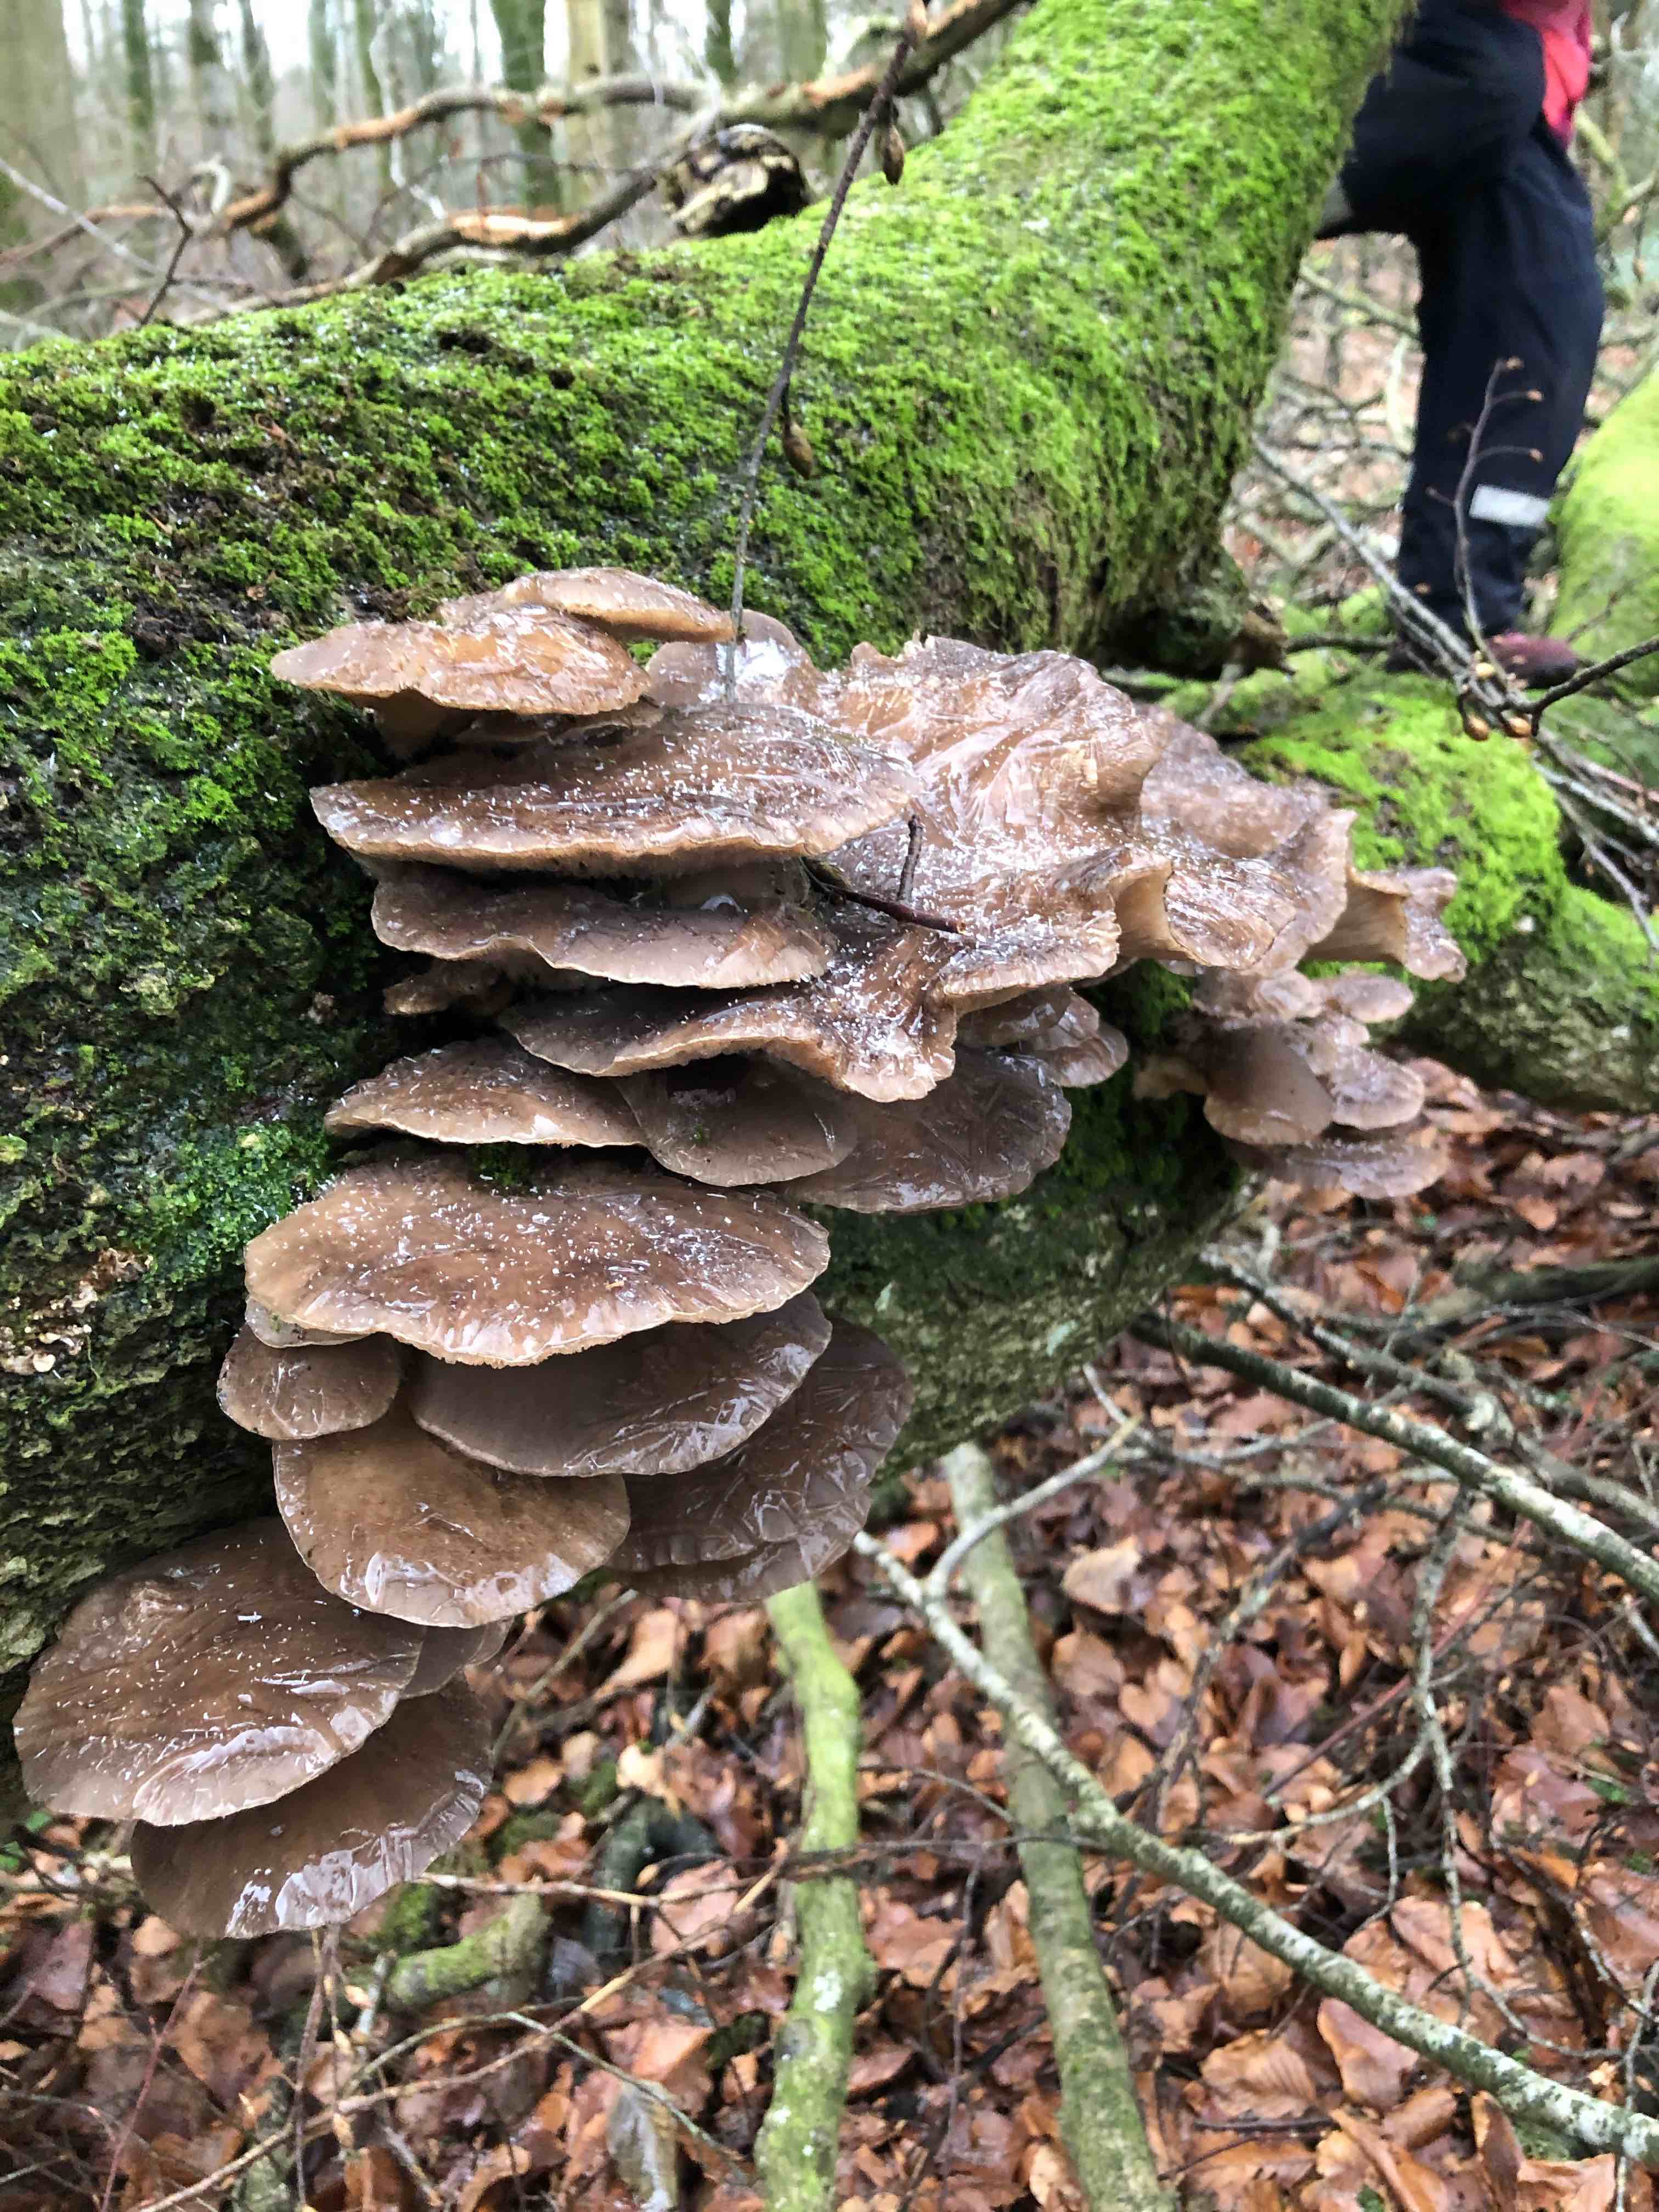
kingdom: Fungi
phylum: Basidiomycota
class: Agaricomycetes
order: Agaricales
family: Pleurotaceae
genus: Pleurotus
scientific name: Pleurotus ostreatus
